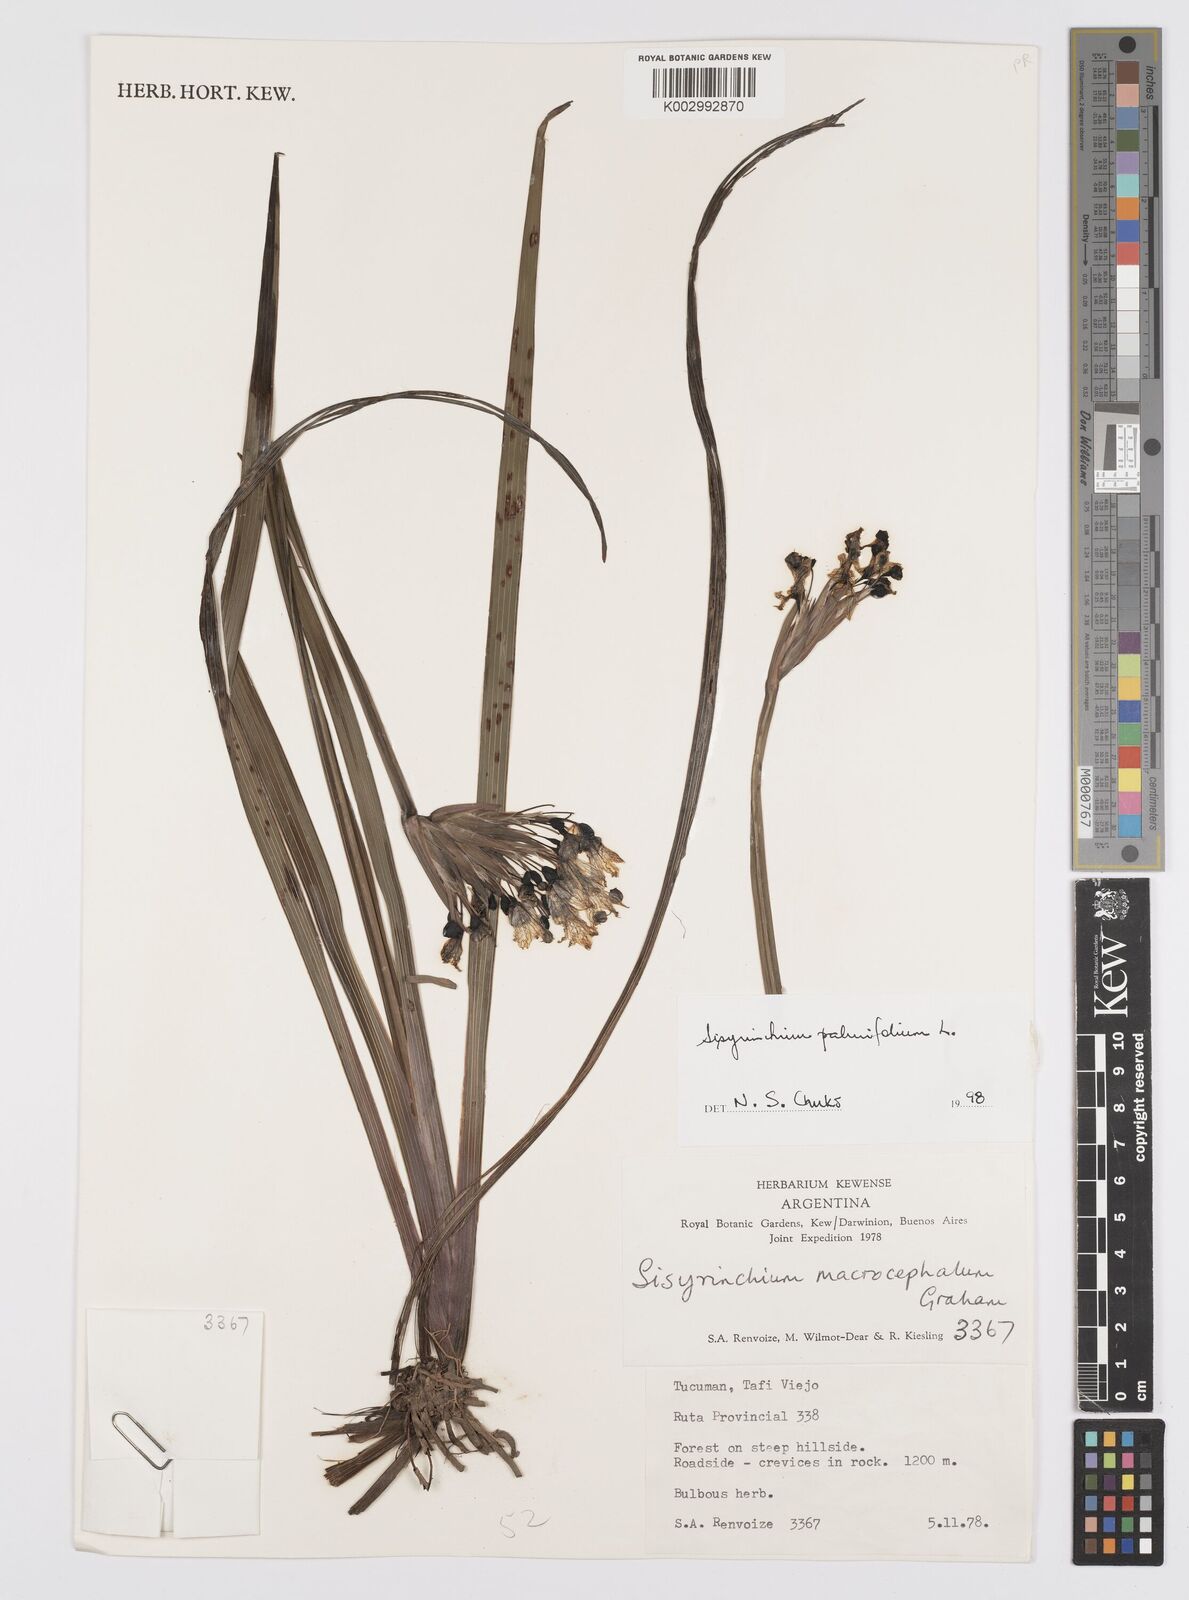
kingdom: Plantae
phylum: Tracheophyta
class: Liliopsida
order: Asparagales
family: Iridaceae
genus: Sisyrinchium
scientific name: Sisyrinchium palmifolium
